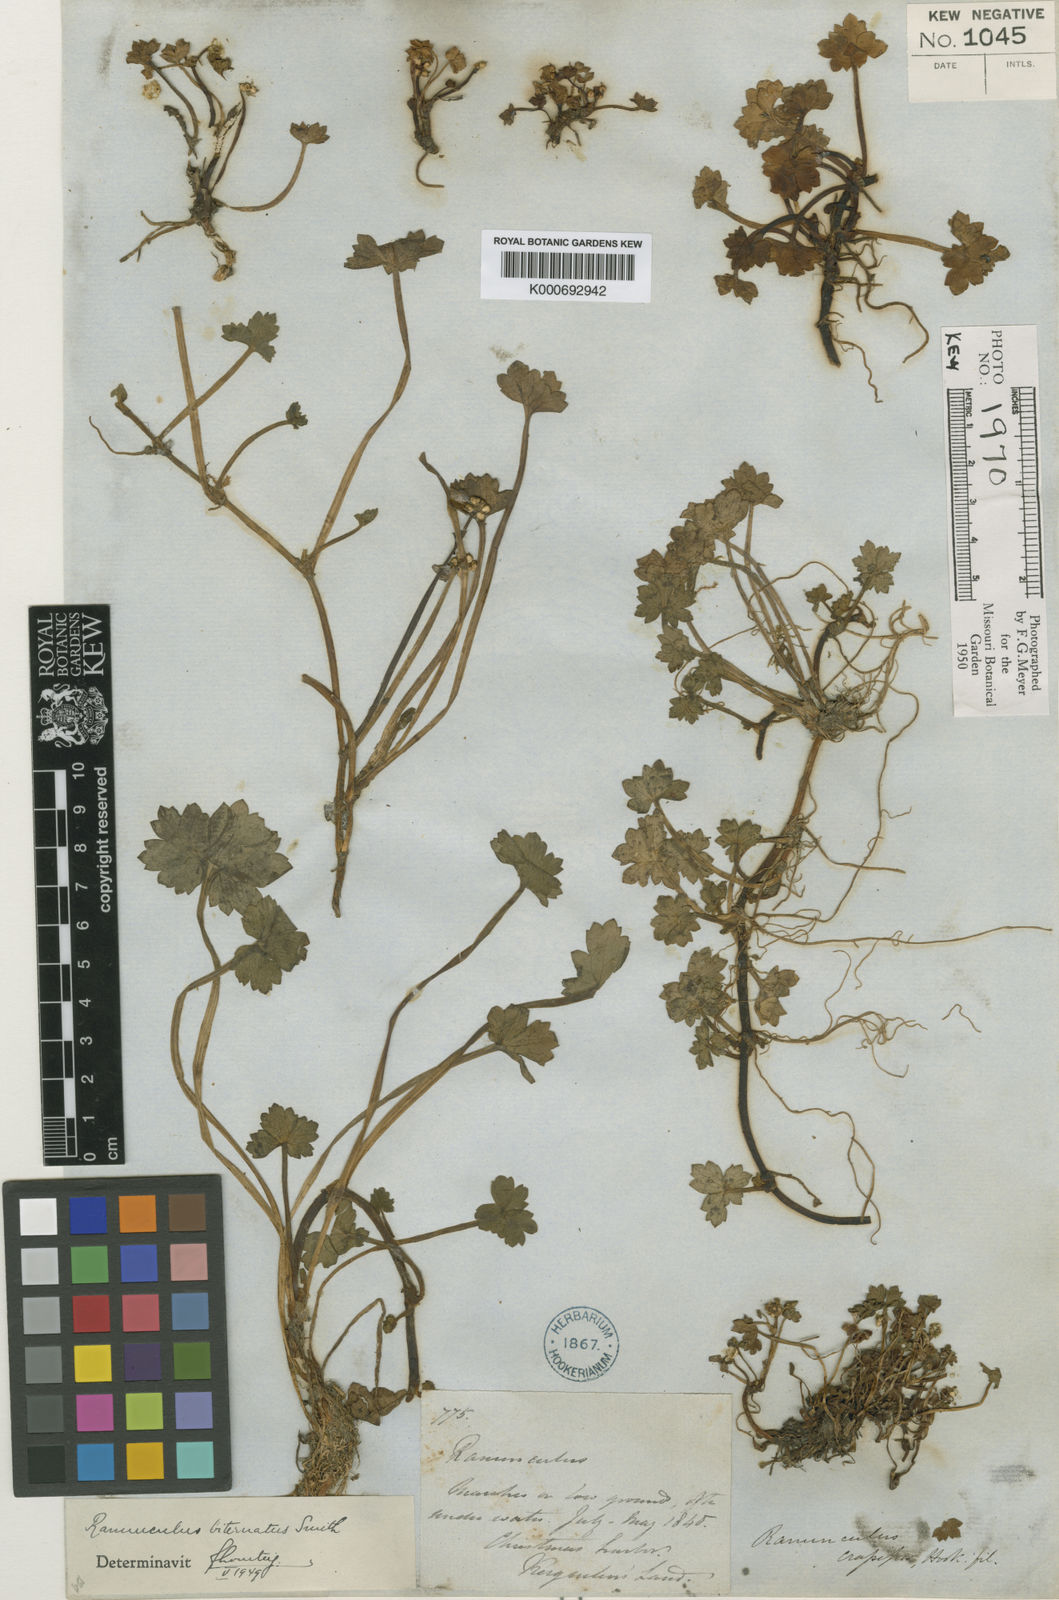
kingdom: Plantae
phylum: Tracheophyta
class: Magnoliopsida
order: Ranunculales
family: Ranunculaceae
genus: Ranunculus
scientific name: Ranunculus biternatus
